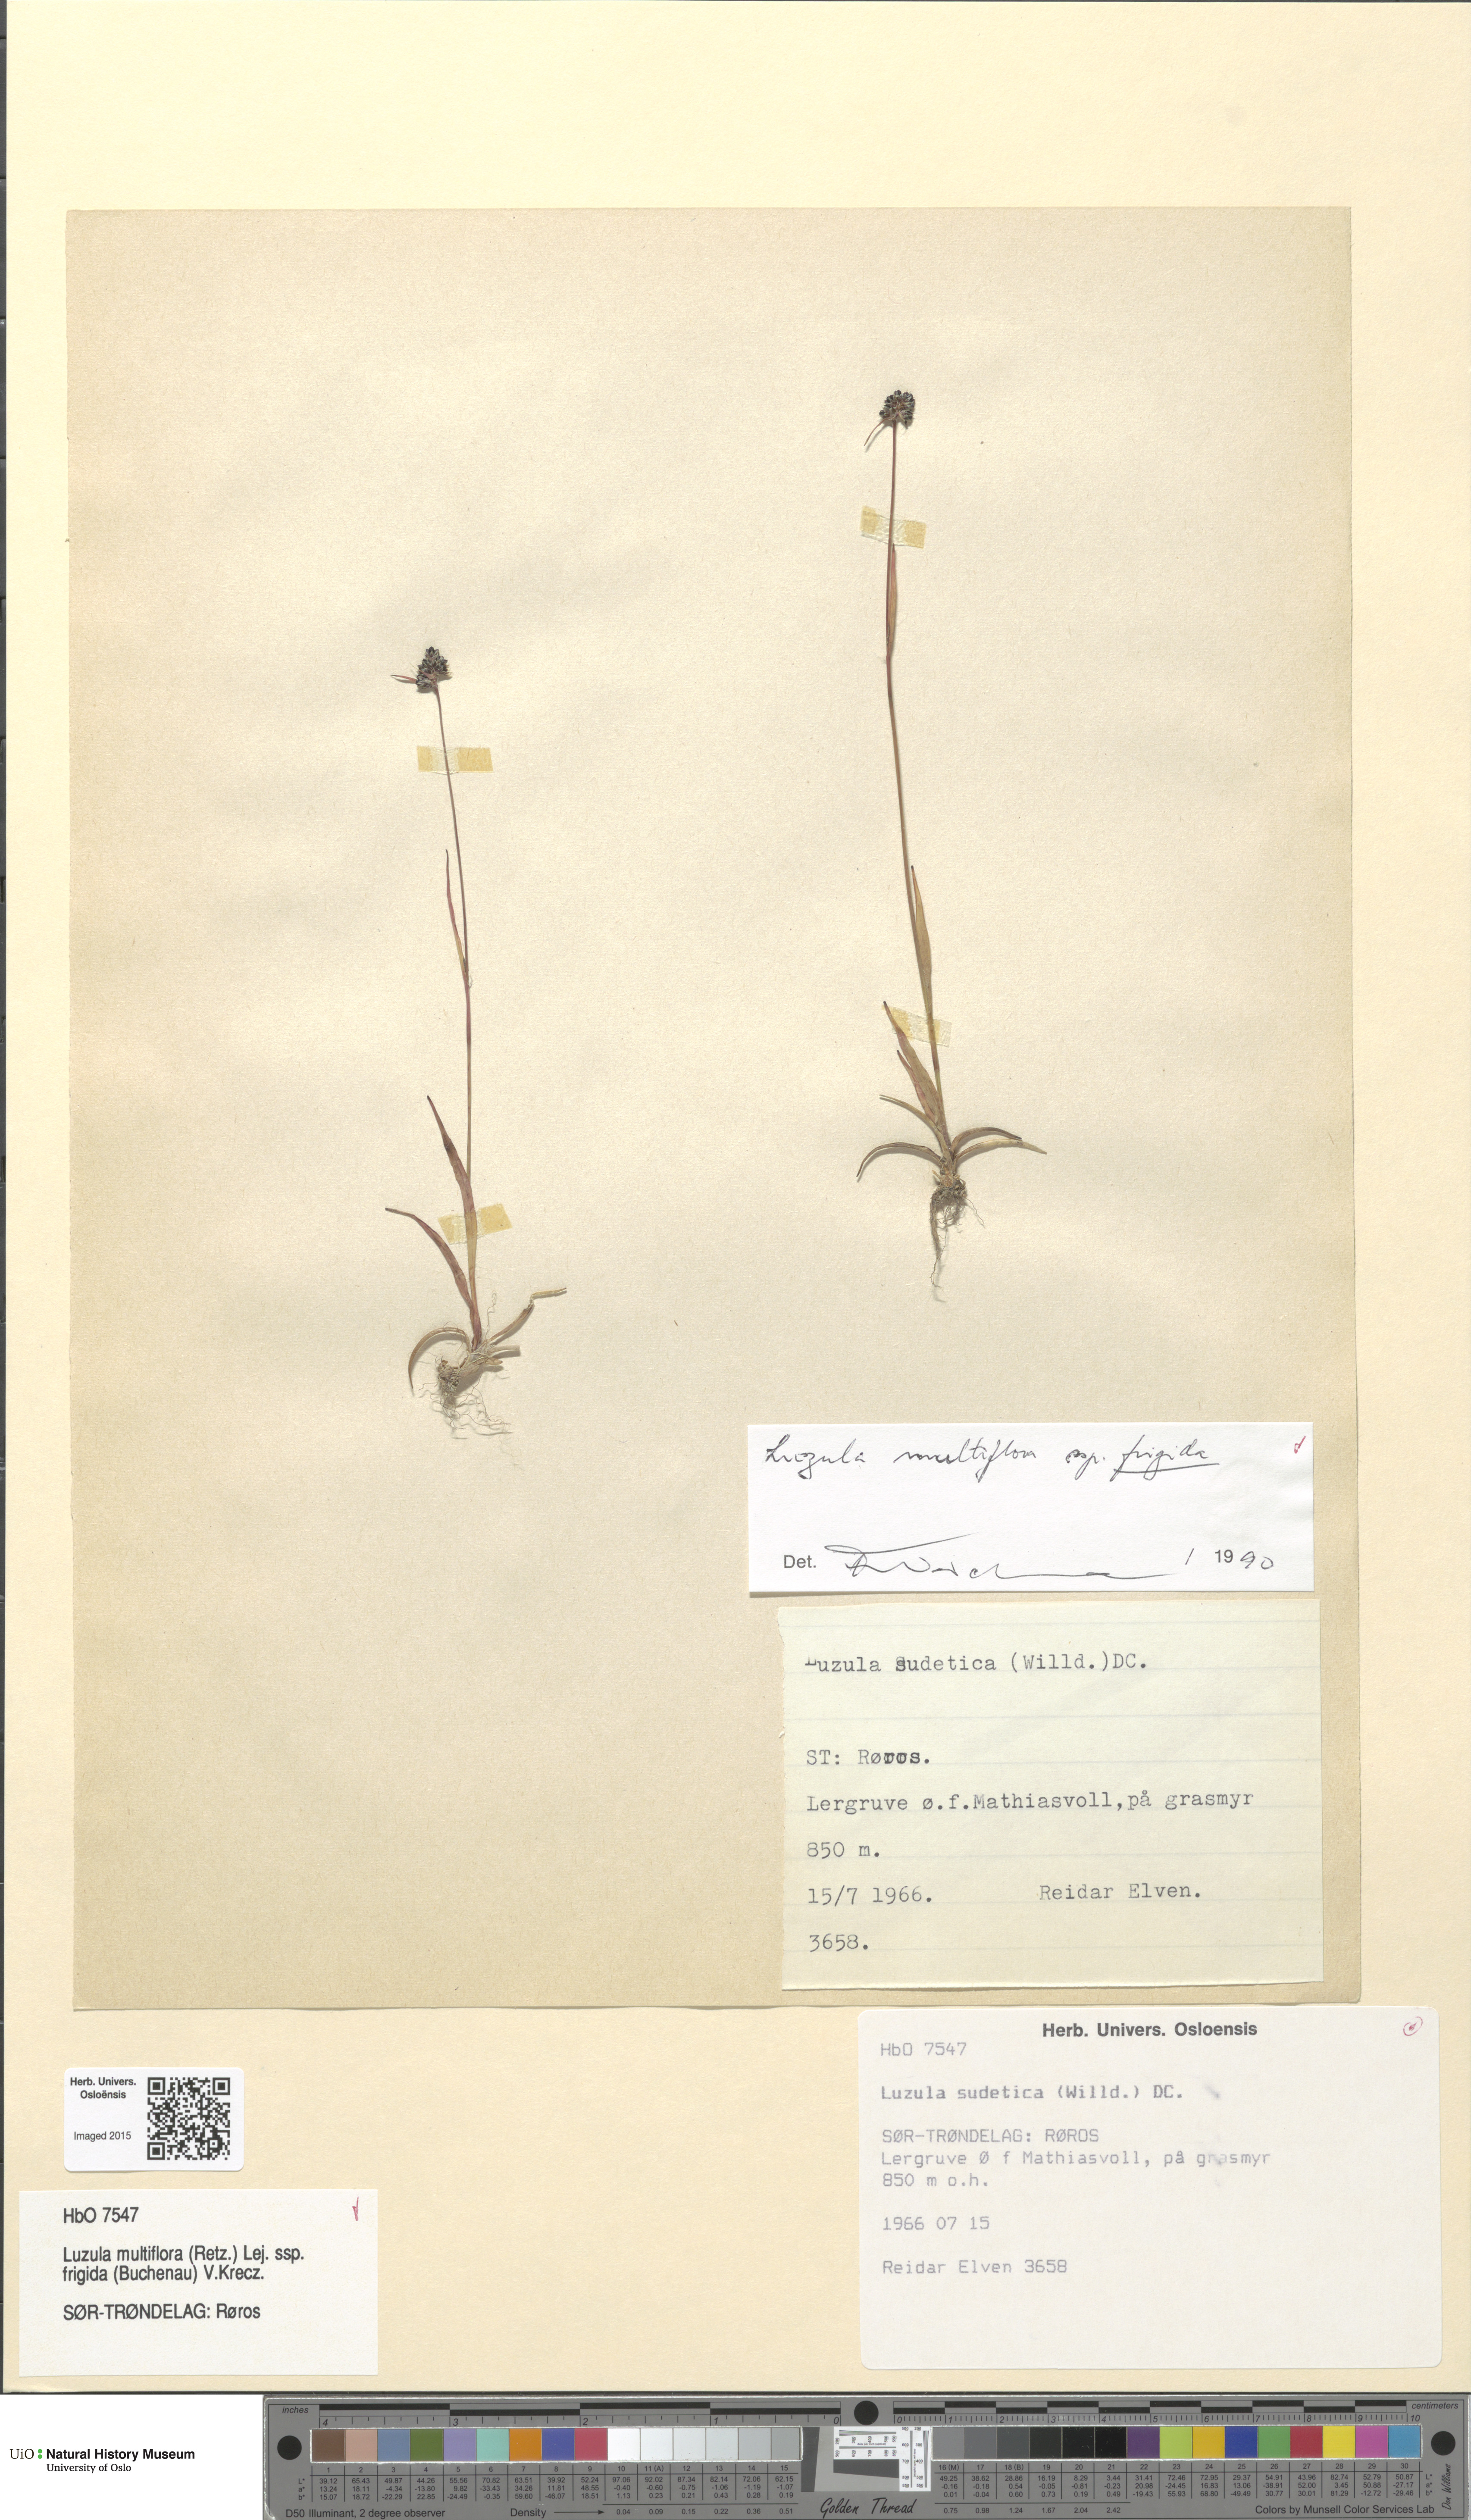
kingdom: Plantae
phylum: Tracheophyta
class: Liliopsida
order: Poales
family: Juncaceae
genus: Luzula
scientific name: Luzula multiflora
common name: Heath wood-rush
